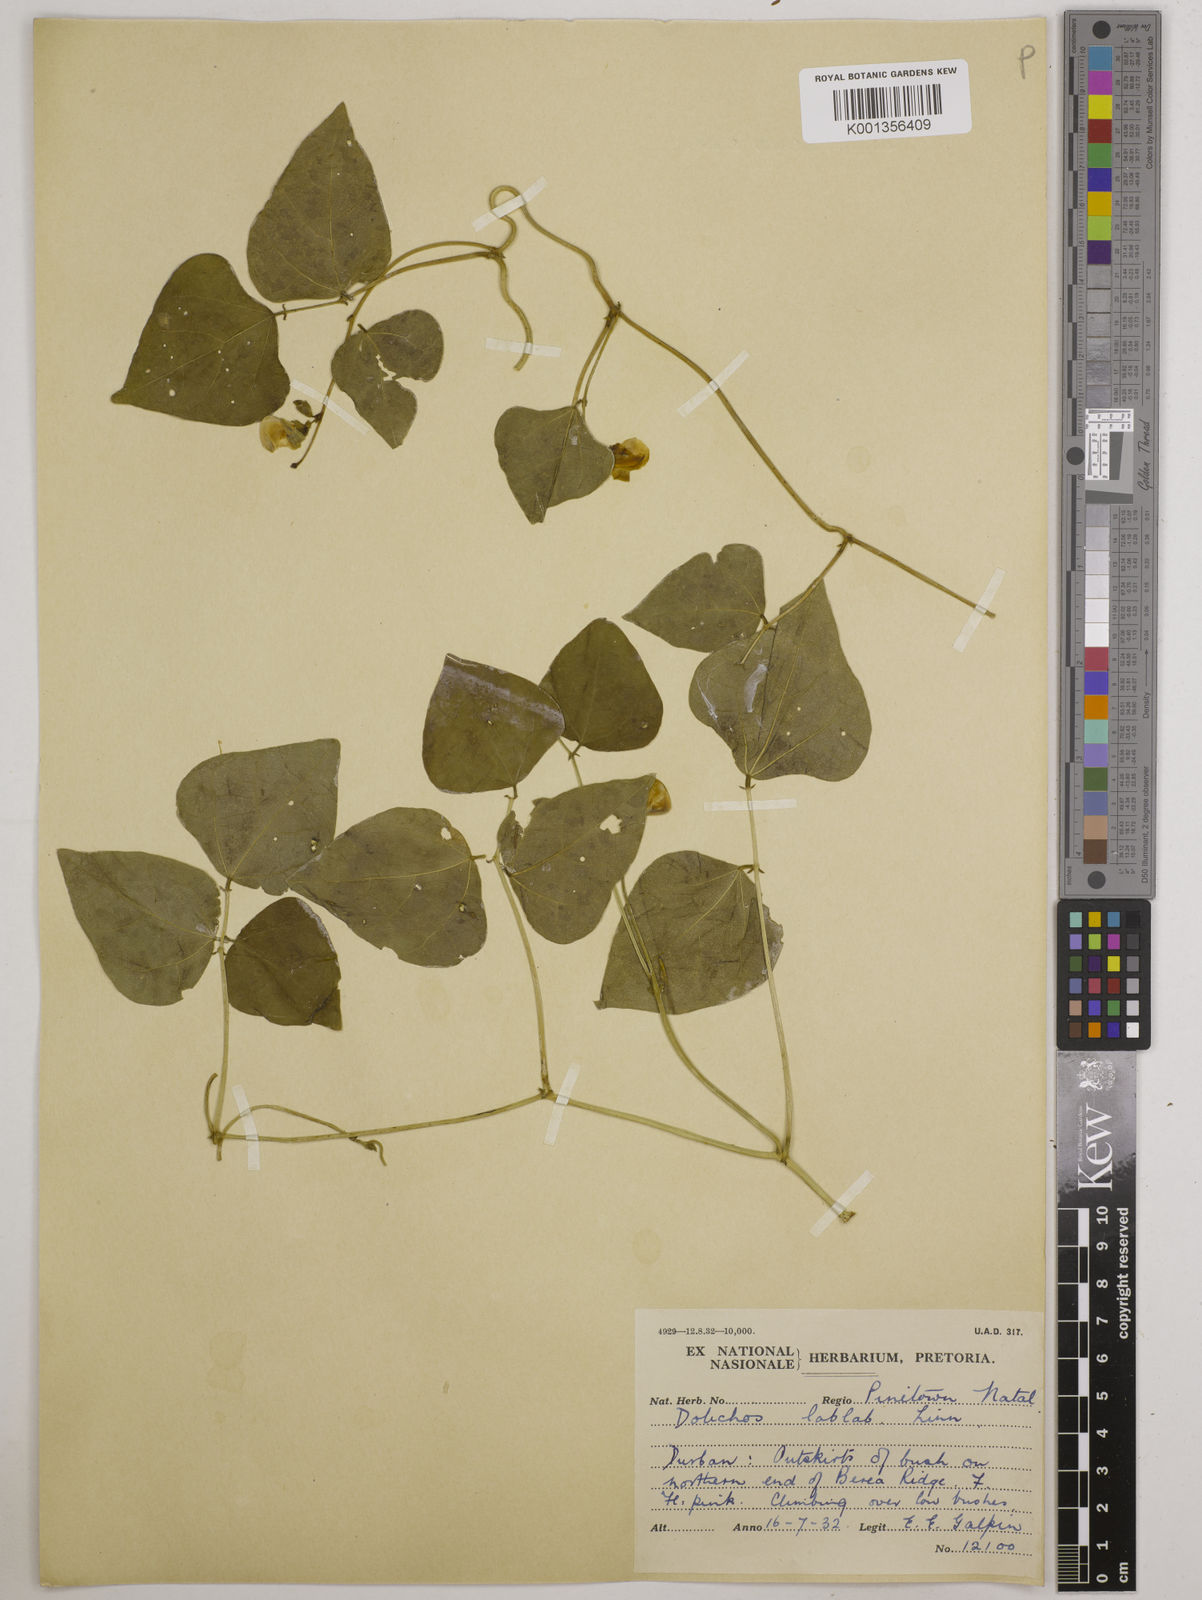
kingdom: Plantae
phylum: Tracheophyta
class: Magnoliopsida
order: Fabales
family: Fabaceae
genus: Lablab
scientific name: Lablab purpureus
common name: Lablab-bean
